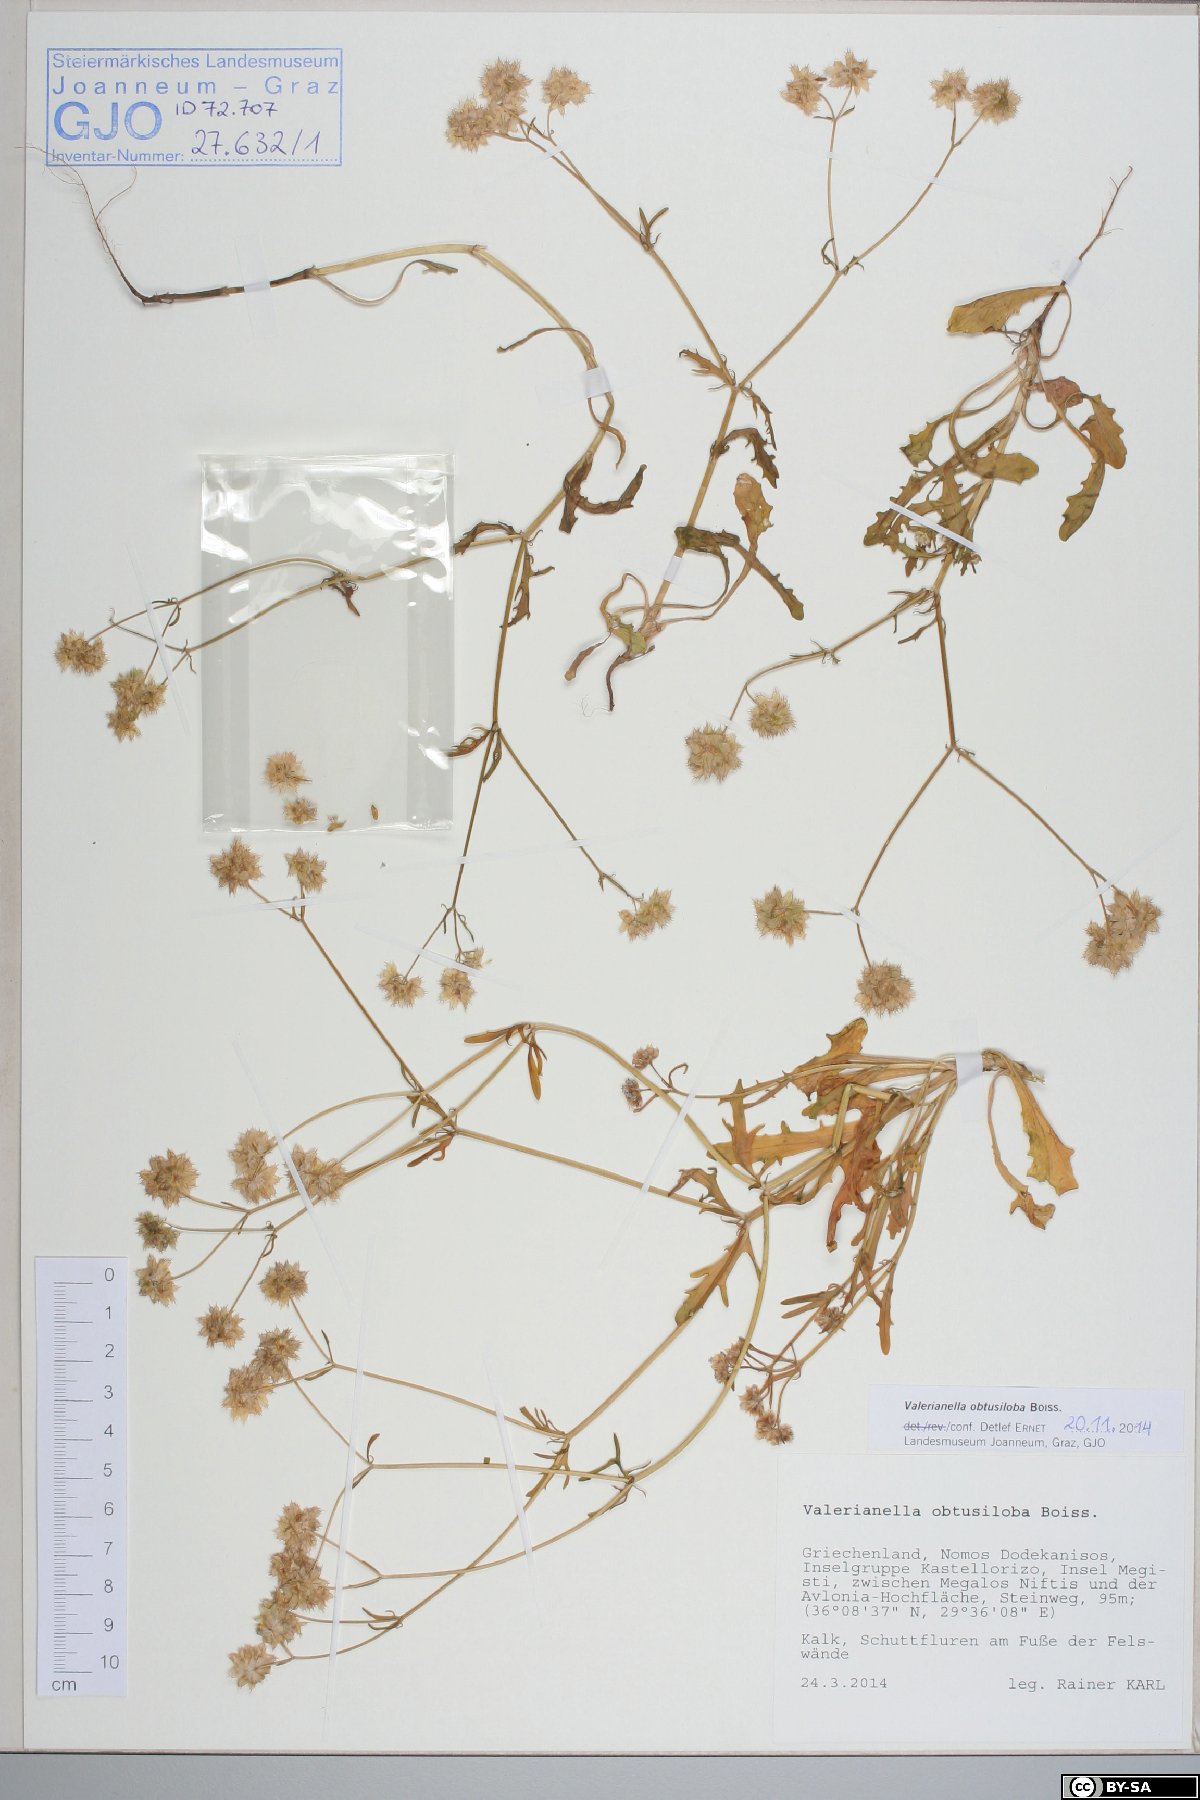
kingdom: Plantae
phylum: Tracheophyta
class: Magnoliopsida
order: Dipsacales
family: Caprifoliaceae
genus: Valerianella
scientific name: Valerianella obtusiloba
